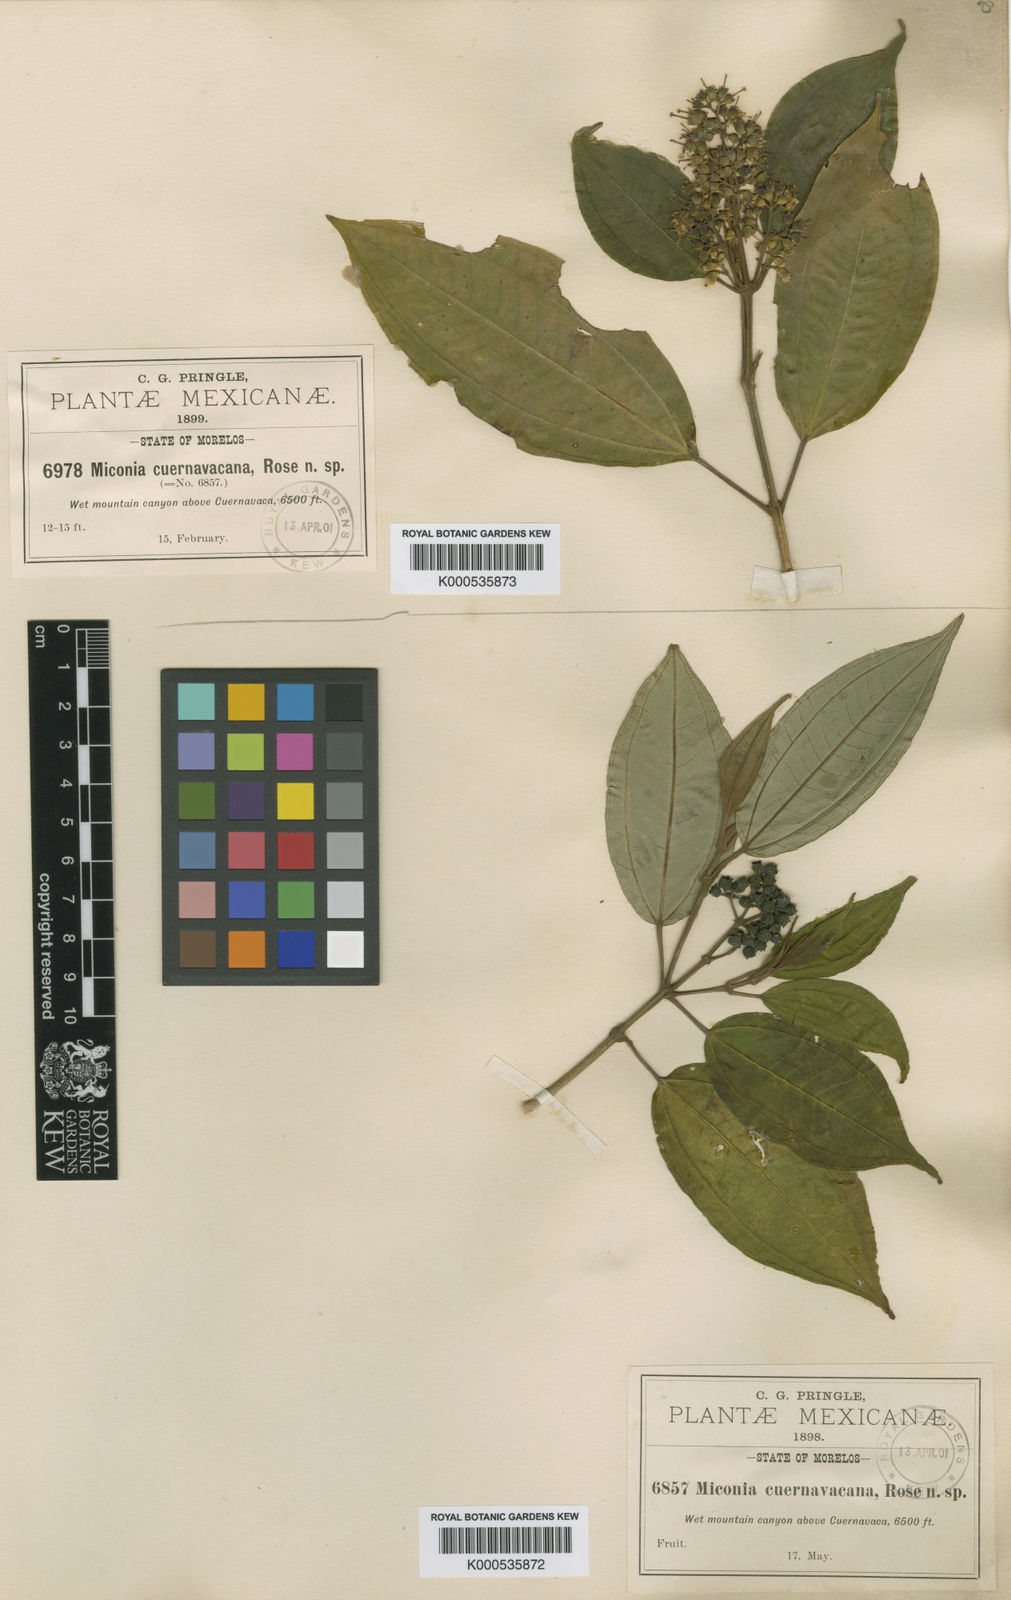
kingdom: Plantae
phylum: Tracheophyta
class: Magnoliopsida
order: Myrtales
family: Melastomataceae
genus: Miconia
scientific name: Miconia
